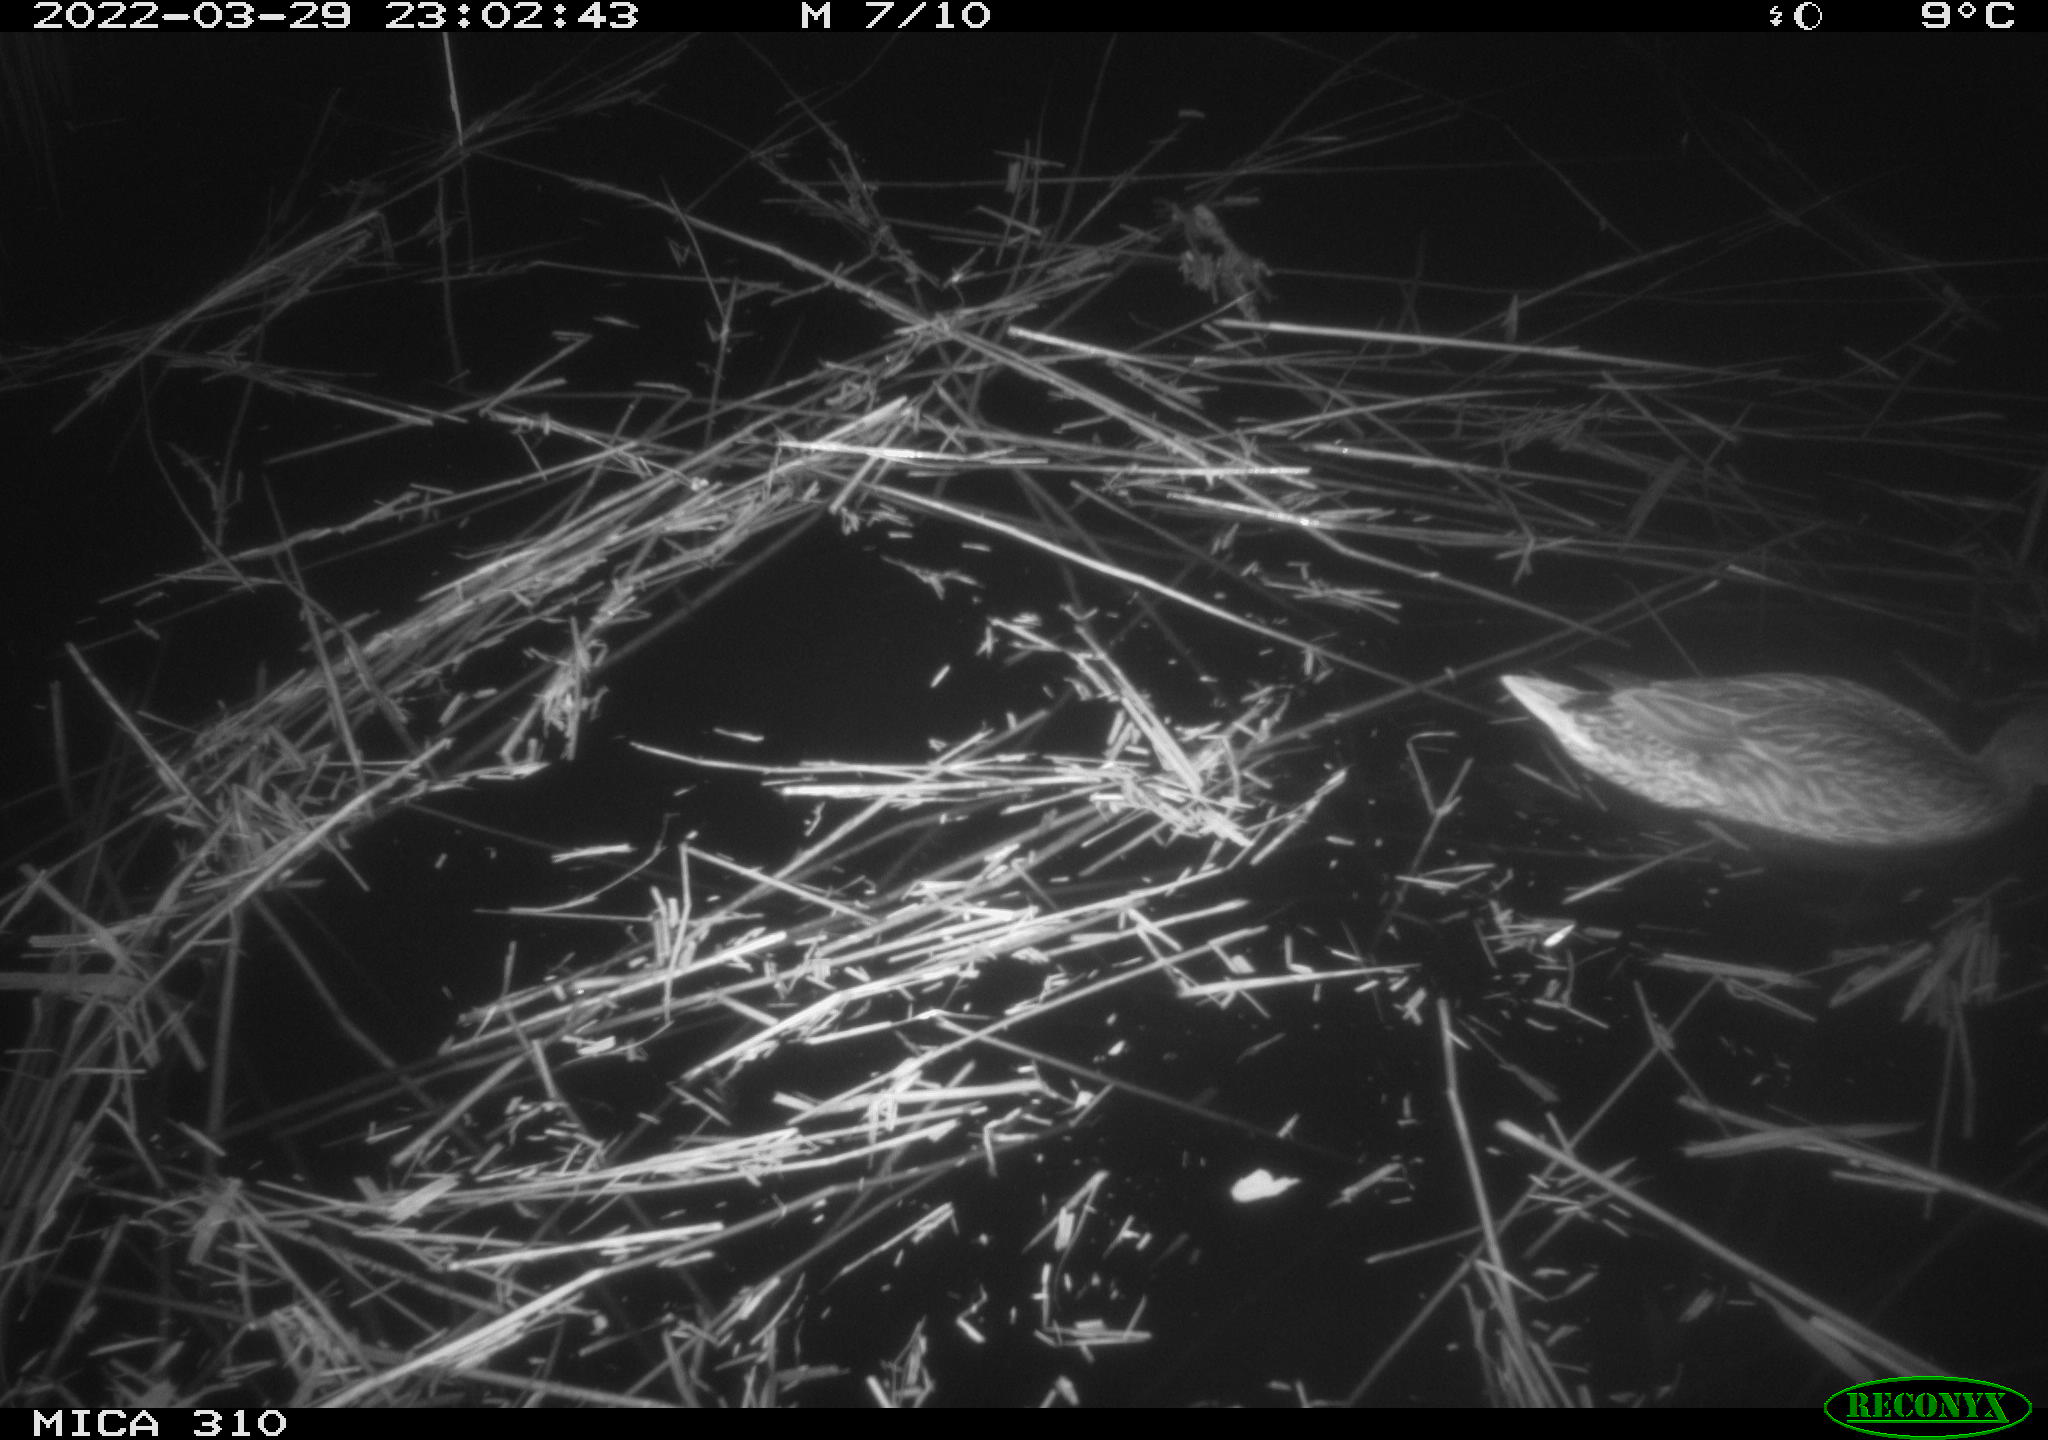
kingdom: Animalia
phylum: Chordata
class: Aves
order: Anseriformes
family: Anatidae
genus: Anas
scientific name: Anas platyrhynchos
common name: Mallard
